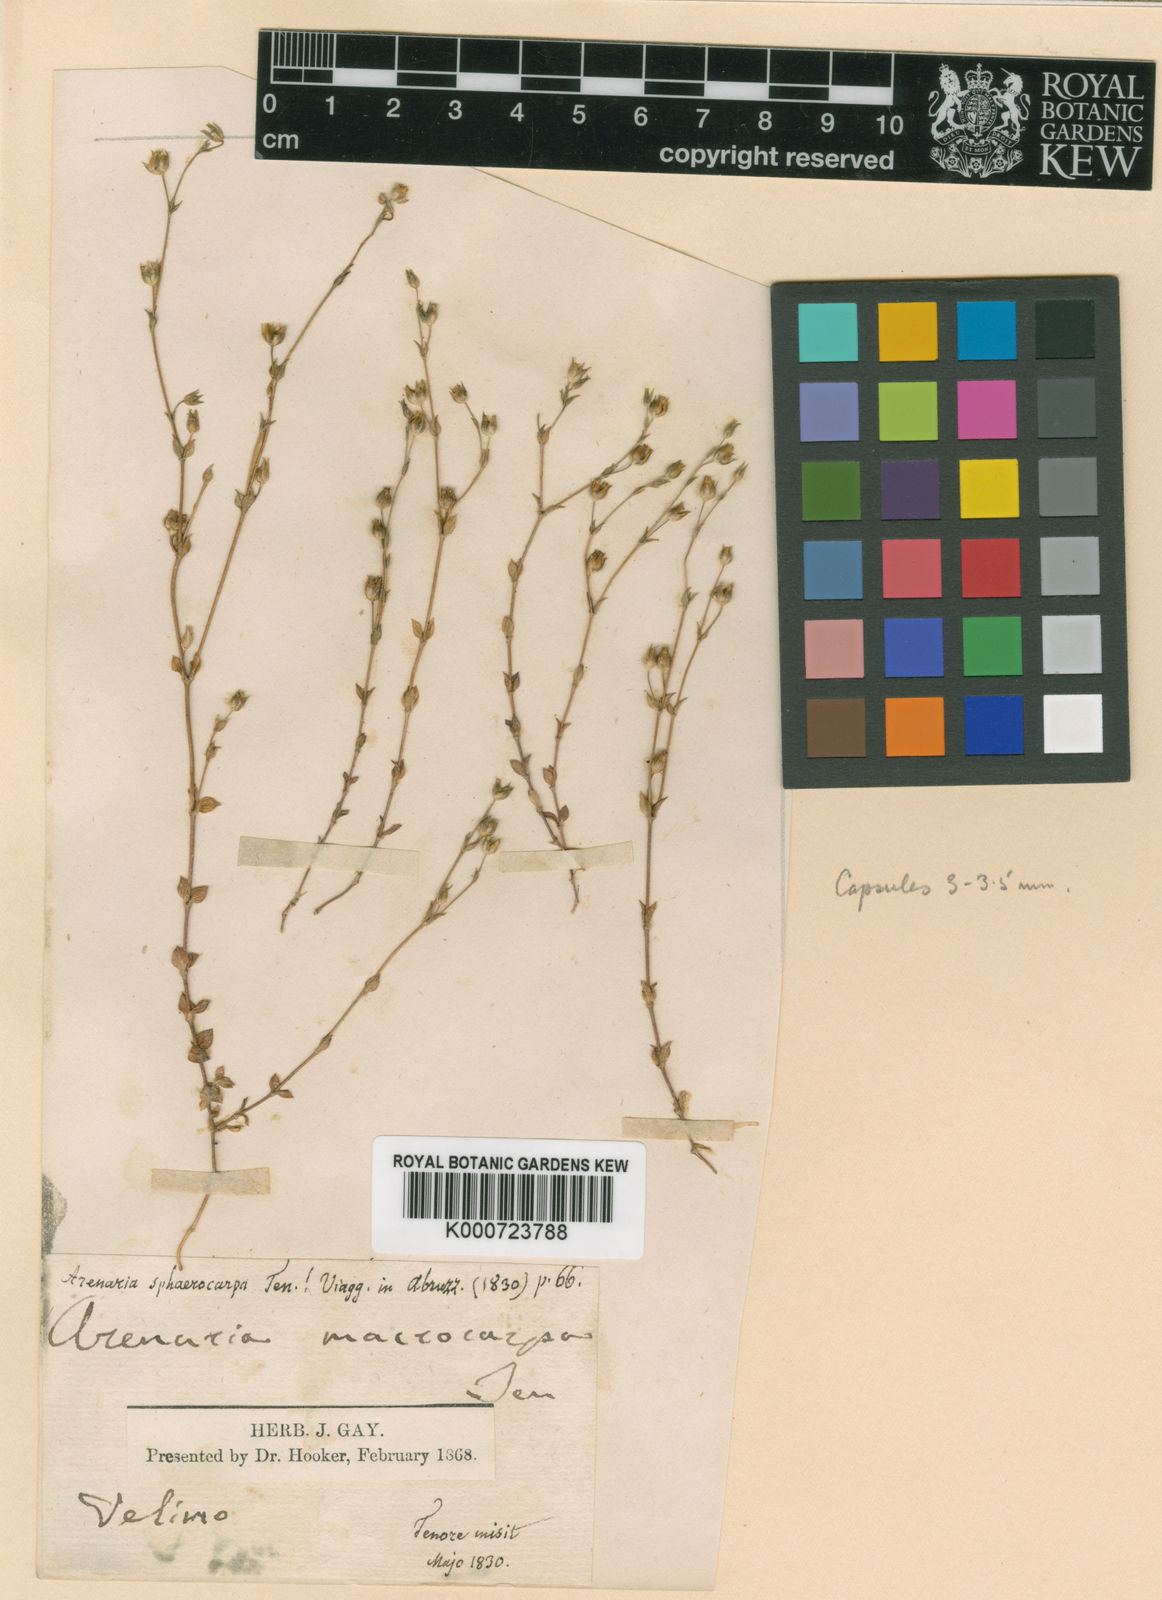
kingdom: Plantae
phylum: Tracheophyta
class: Magnoliopsida
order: Caryophyllales
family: Caryophyllaceae
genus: Arenaria
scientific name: Arenaria serpyllifolia
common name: Thyme-leaved sandwort
